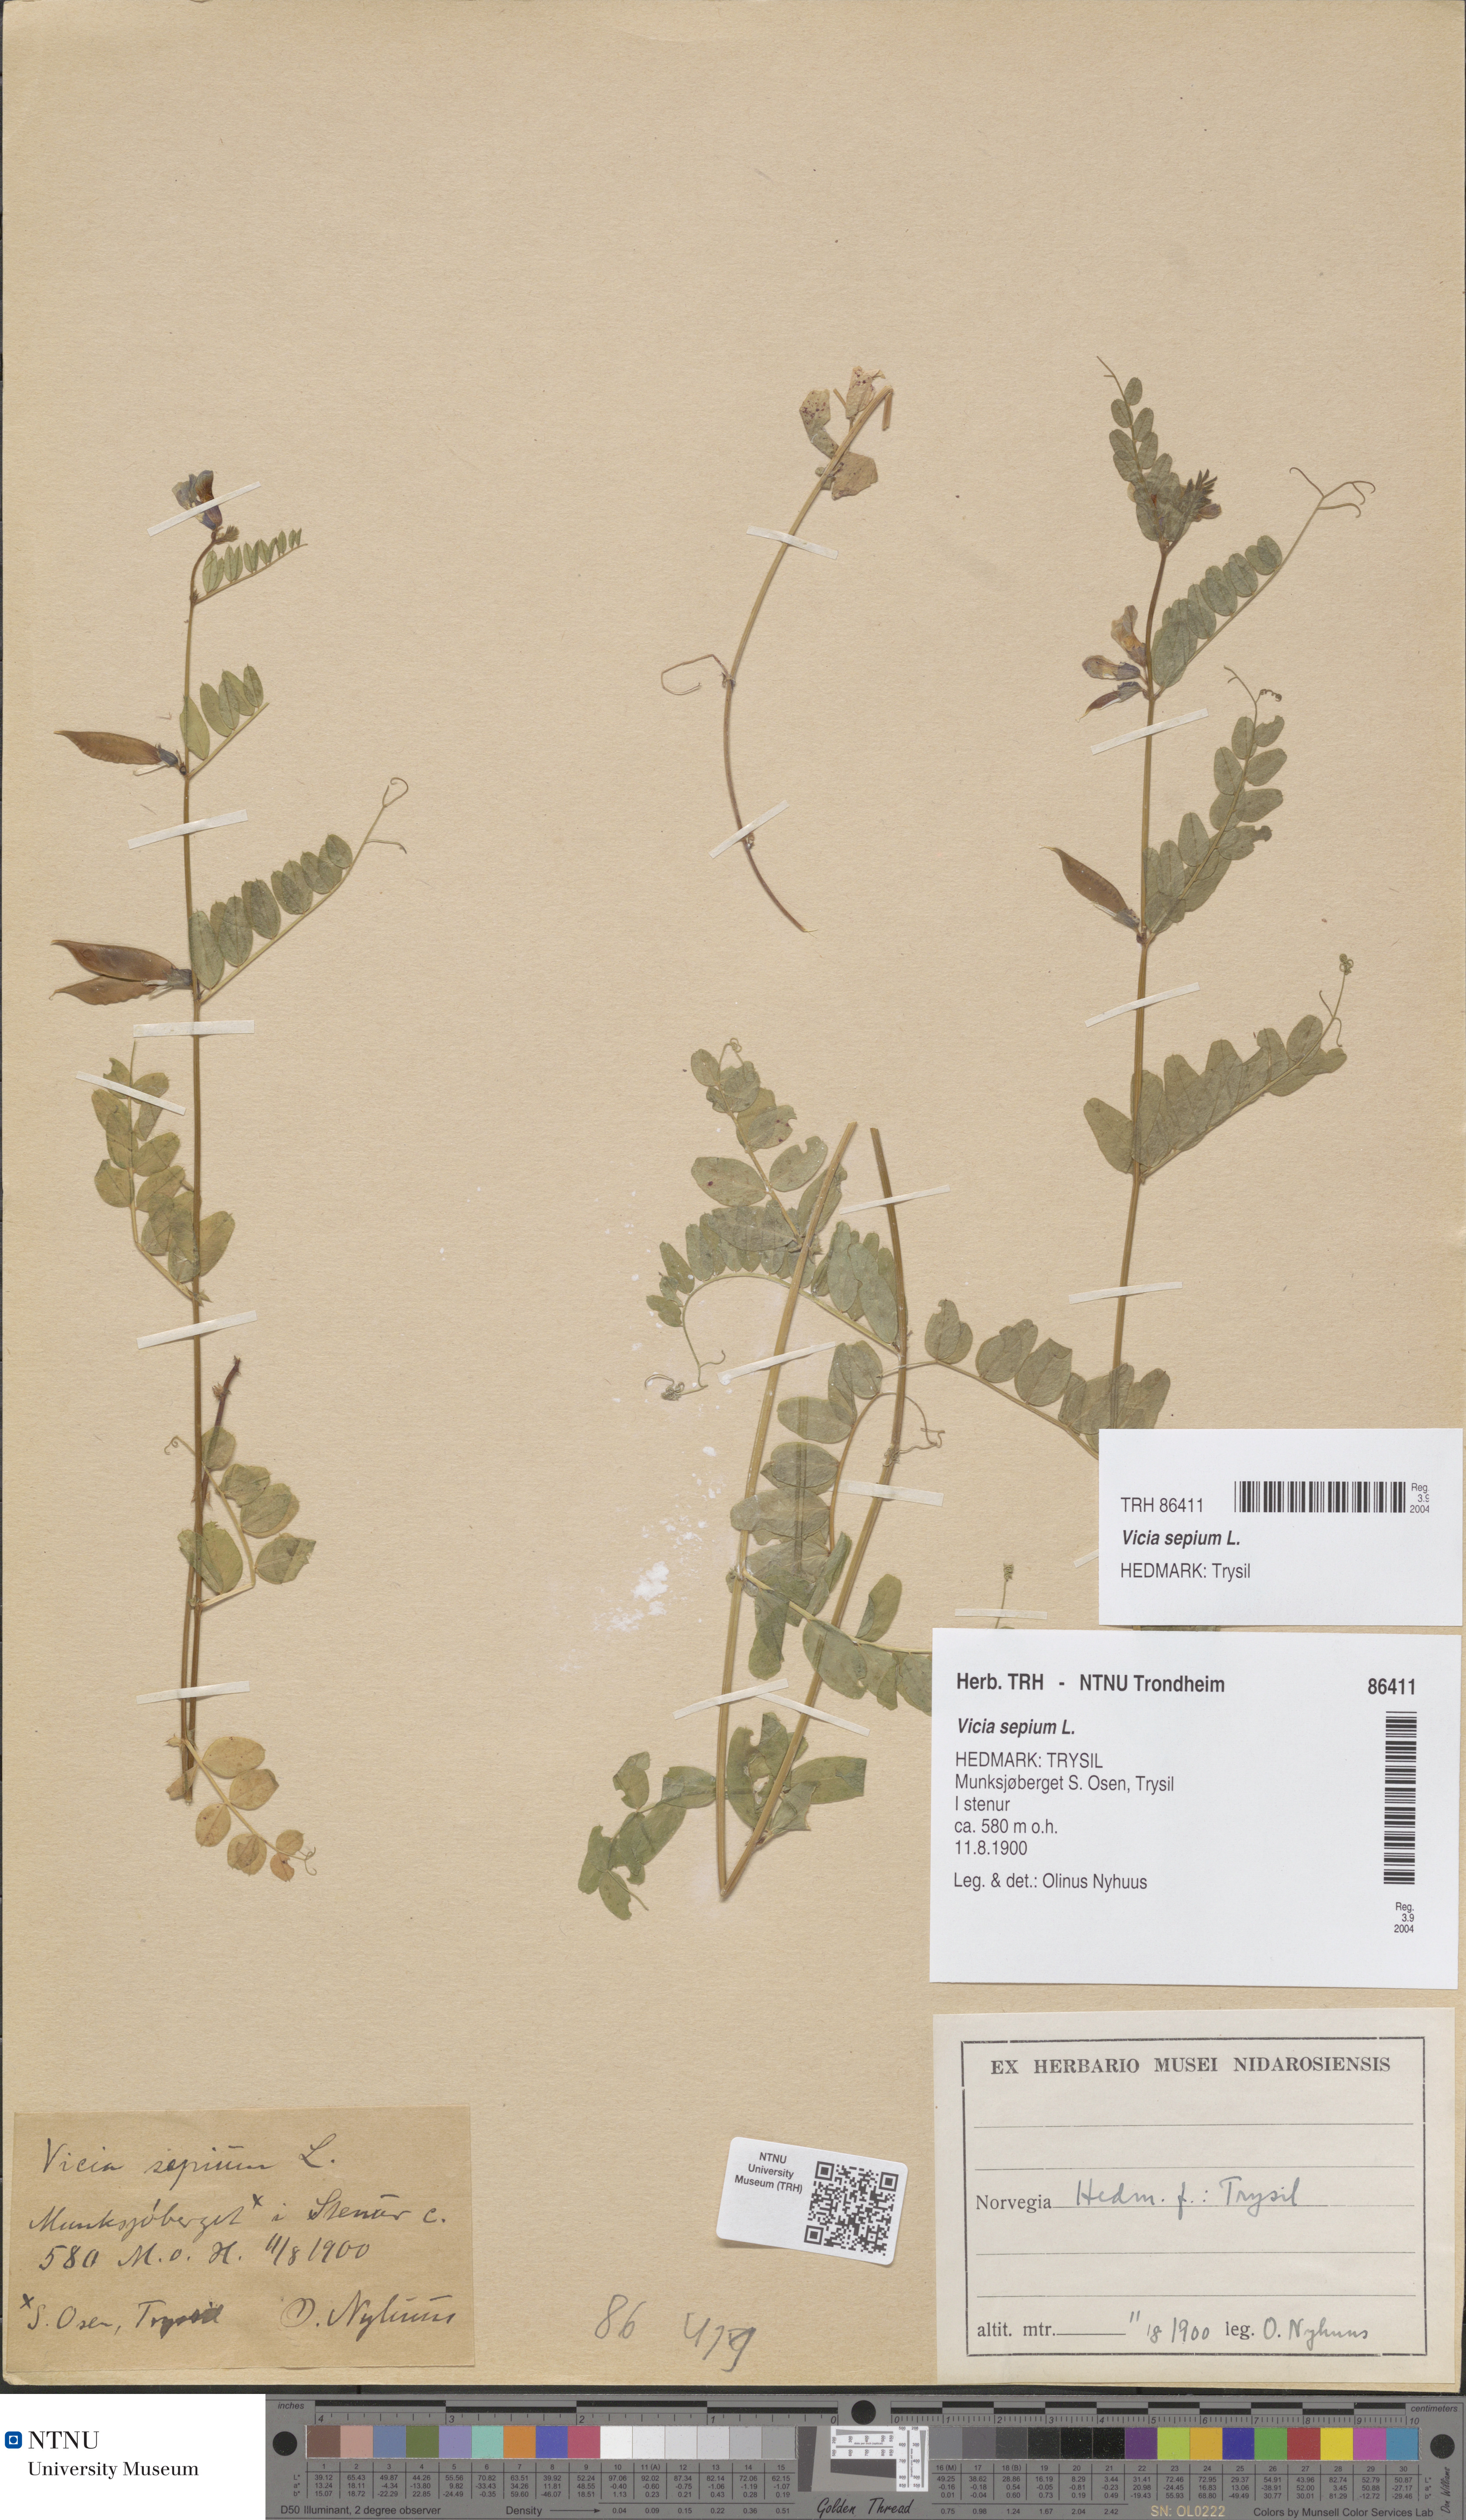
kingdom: Plantae
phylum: Tracheophyta
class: Magnoliopsida
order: Fabales
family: Fabaceae
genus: Vicia
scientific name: Vicia sepium
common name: Bush vetch
